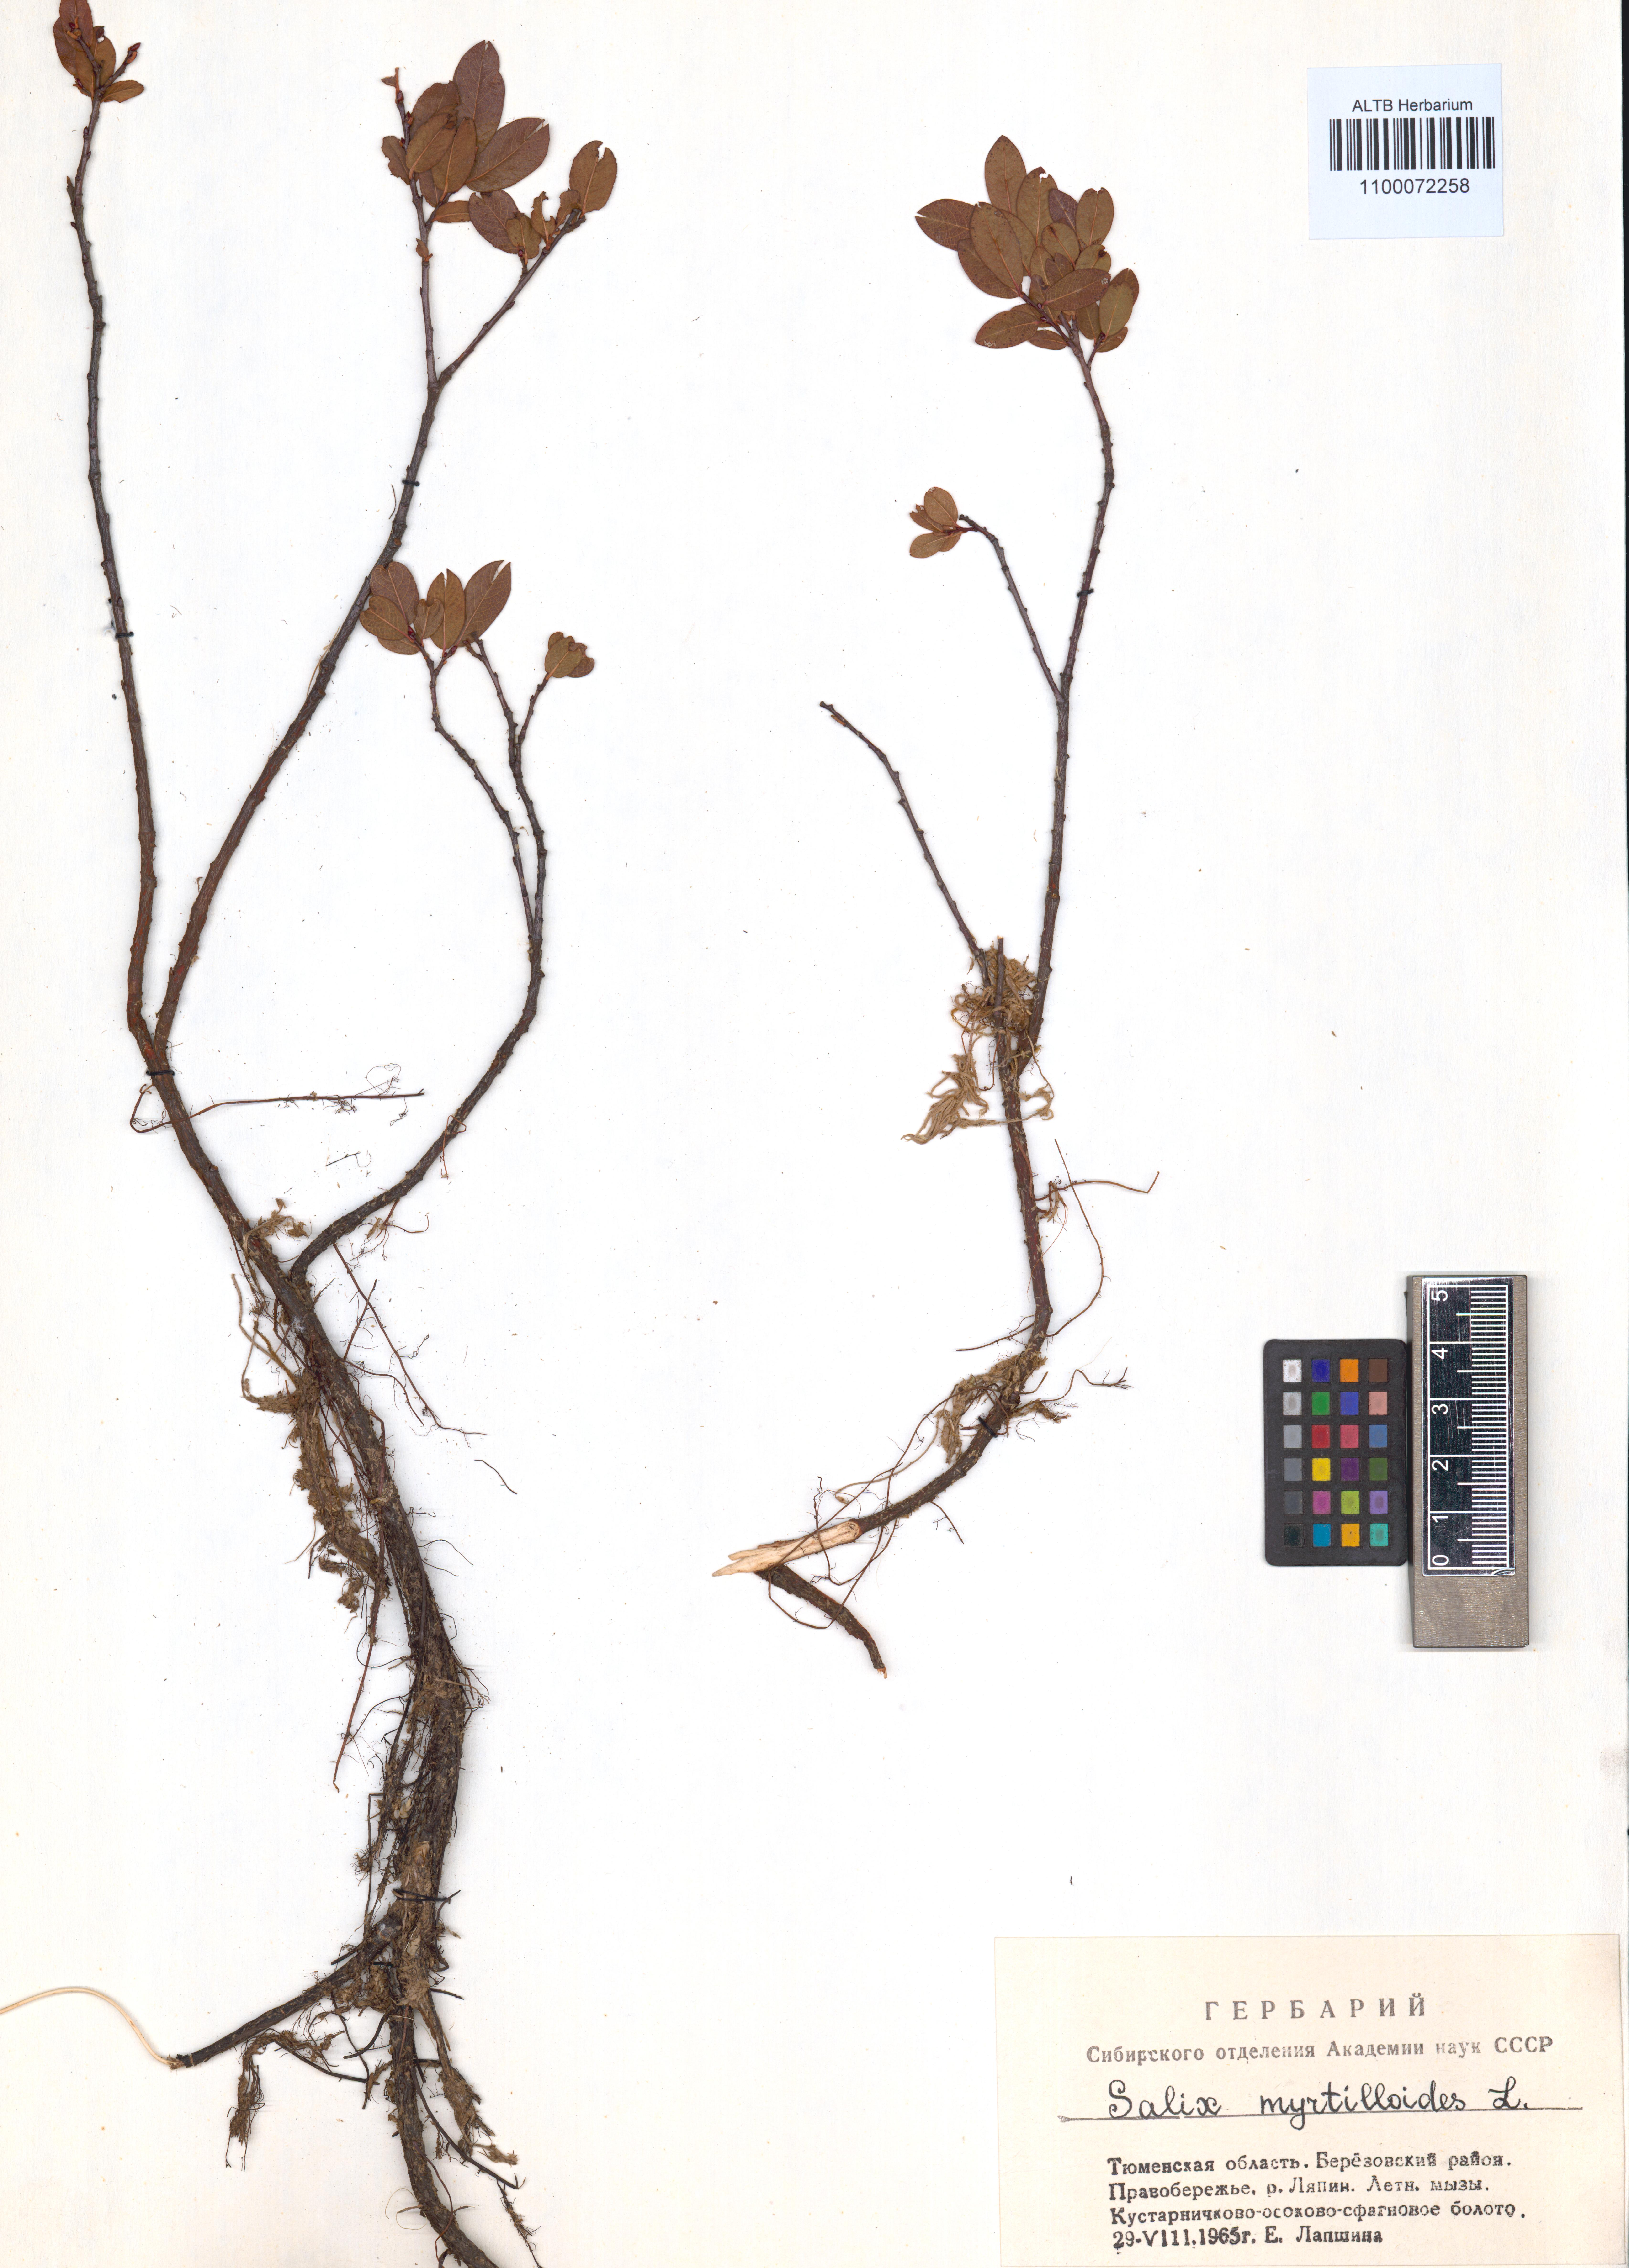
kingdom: Plantae
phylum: Tracheophyta
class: Magnoliopsida
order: Malpighiales
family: Salicaceae
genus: Salix
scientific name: Salix myrtilloides
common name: Myrtle-leaved willow
